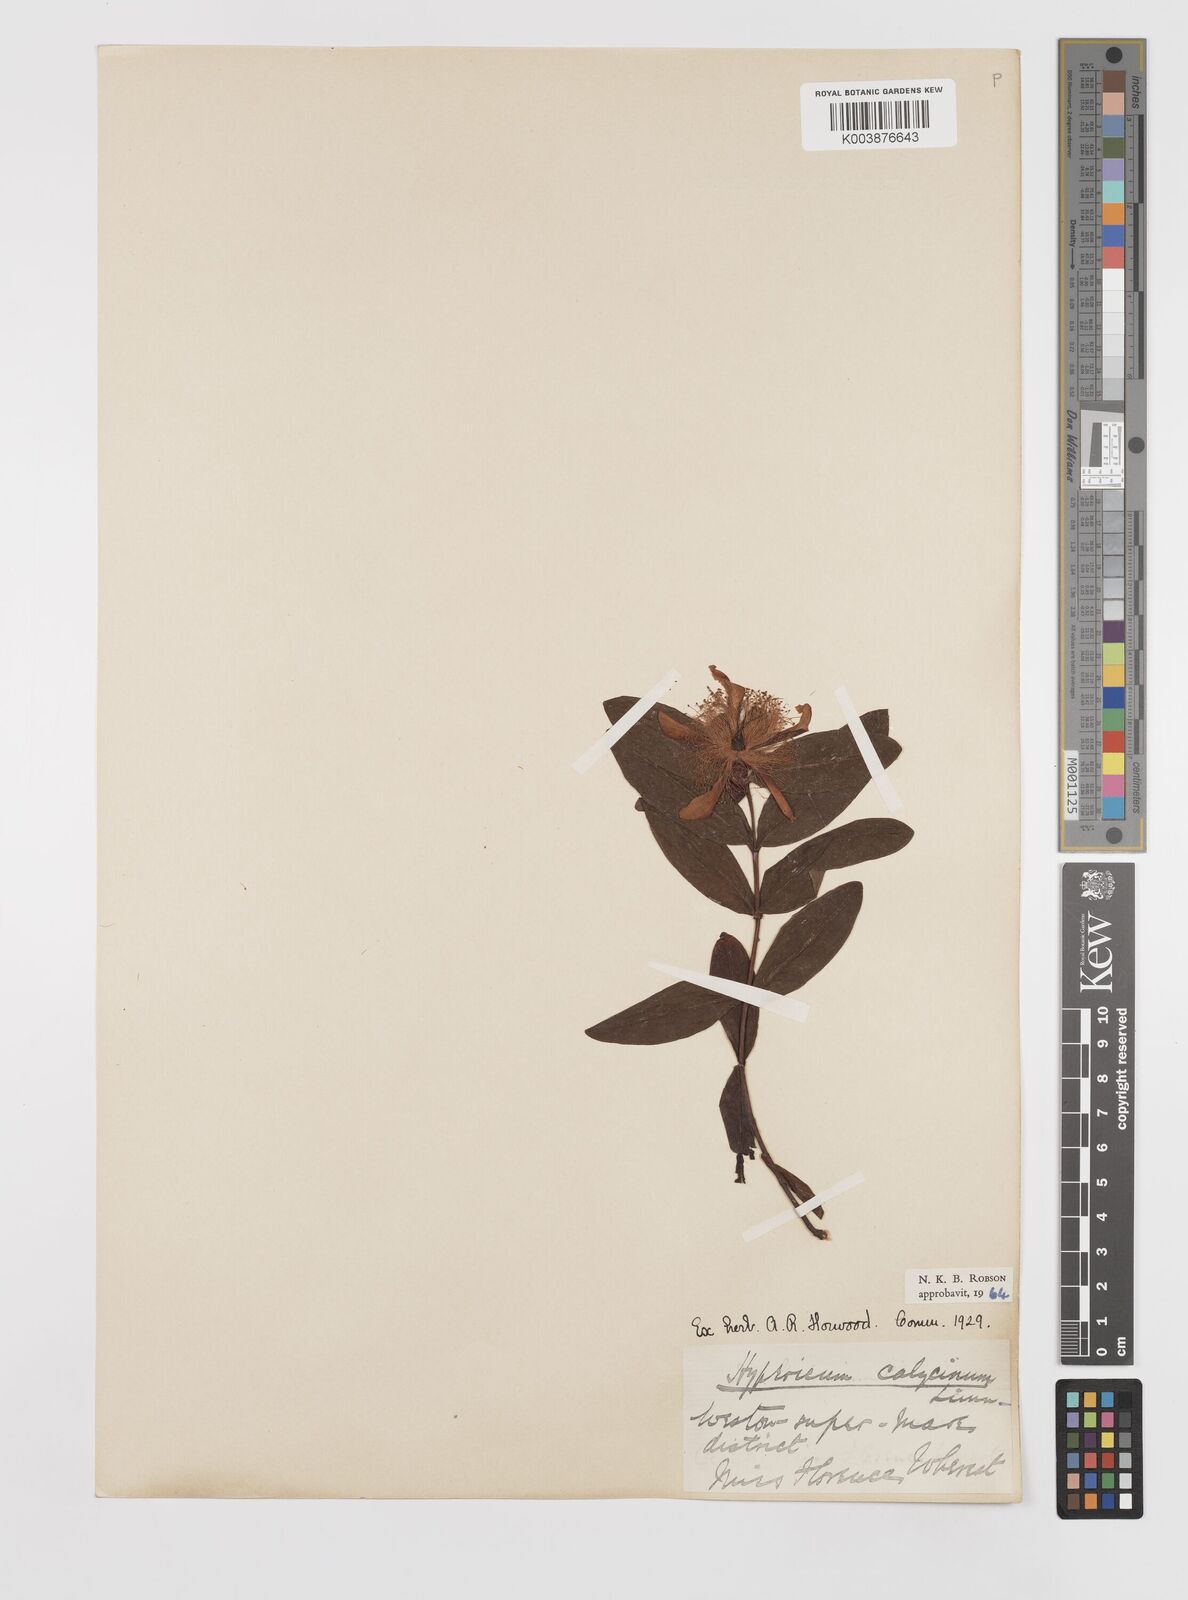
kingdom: Plantae
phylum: Tracheophyta
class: Magnoliopsida
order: Malpighiales
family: Hypericaceae
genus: Hypericum
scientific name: Hypericum calycinum
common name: Rose-of-sharon
